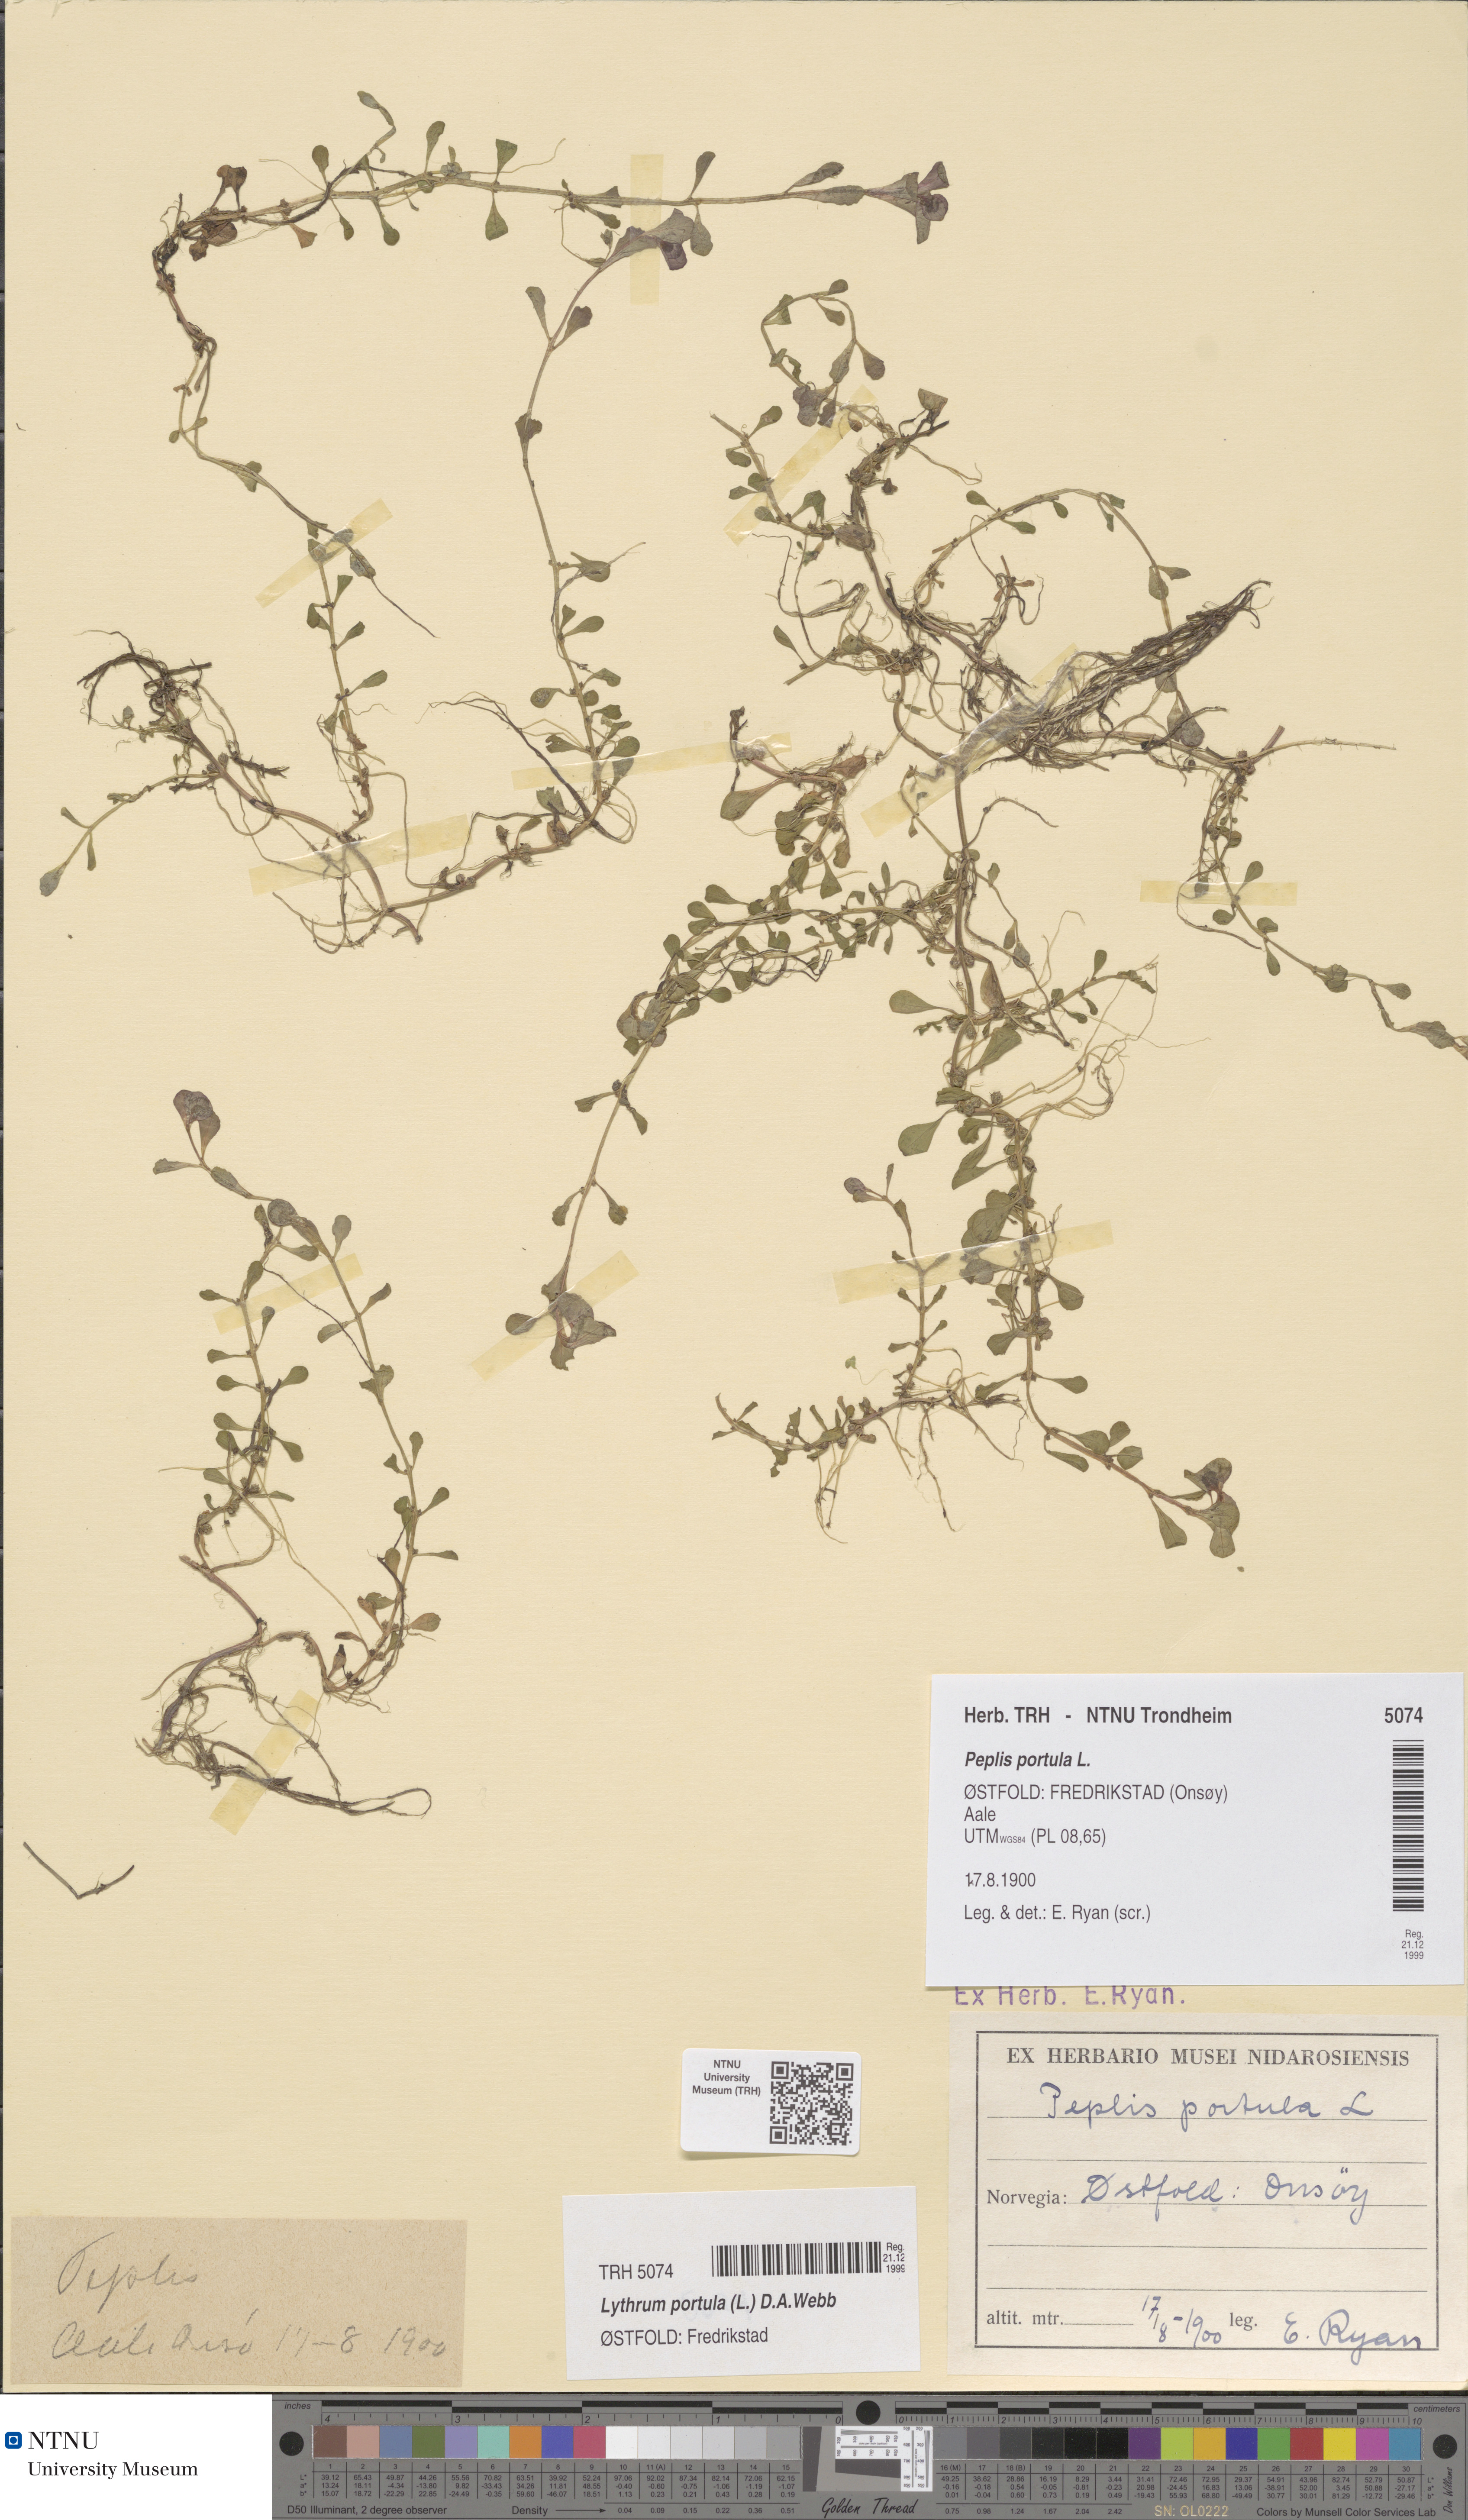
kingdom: Plantae
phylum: Tracheophyta
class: Magnoliopsida
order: Myrtales
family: Lythraceae
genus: Lythrum
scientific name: Lythrum portula
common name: Water purslane
